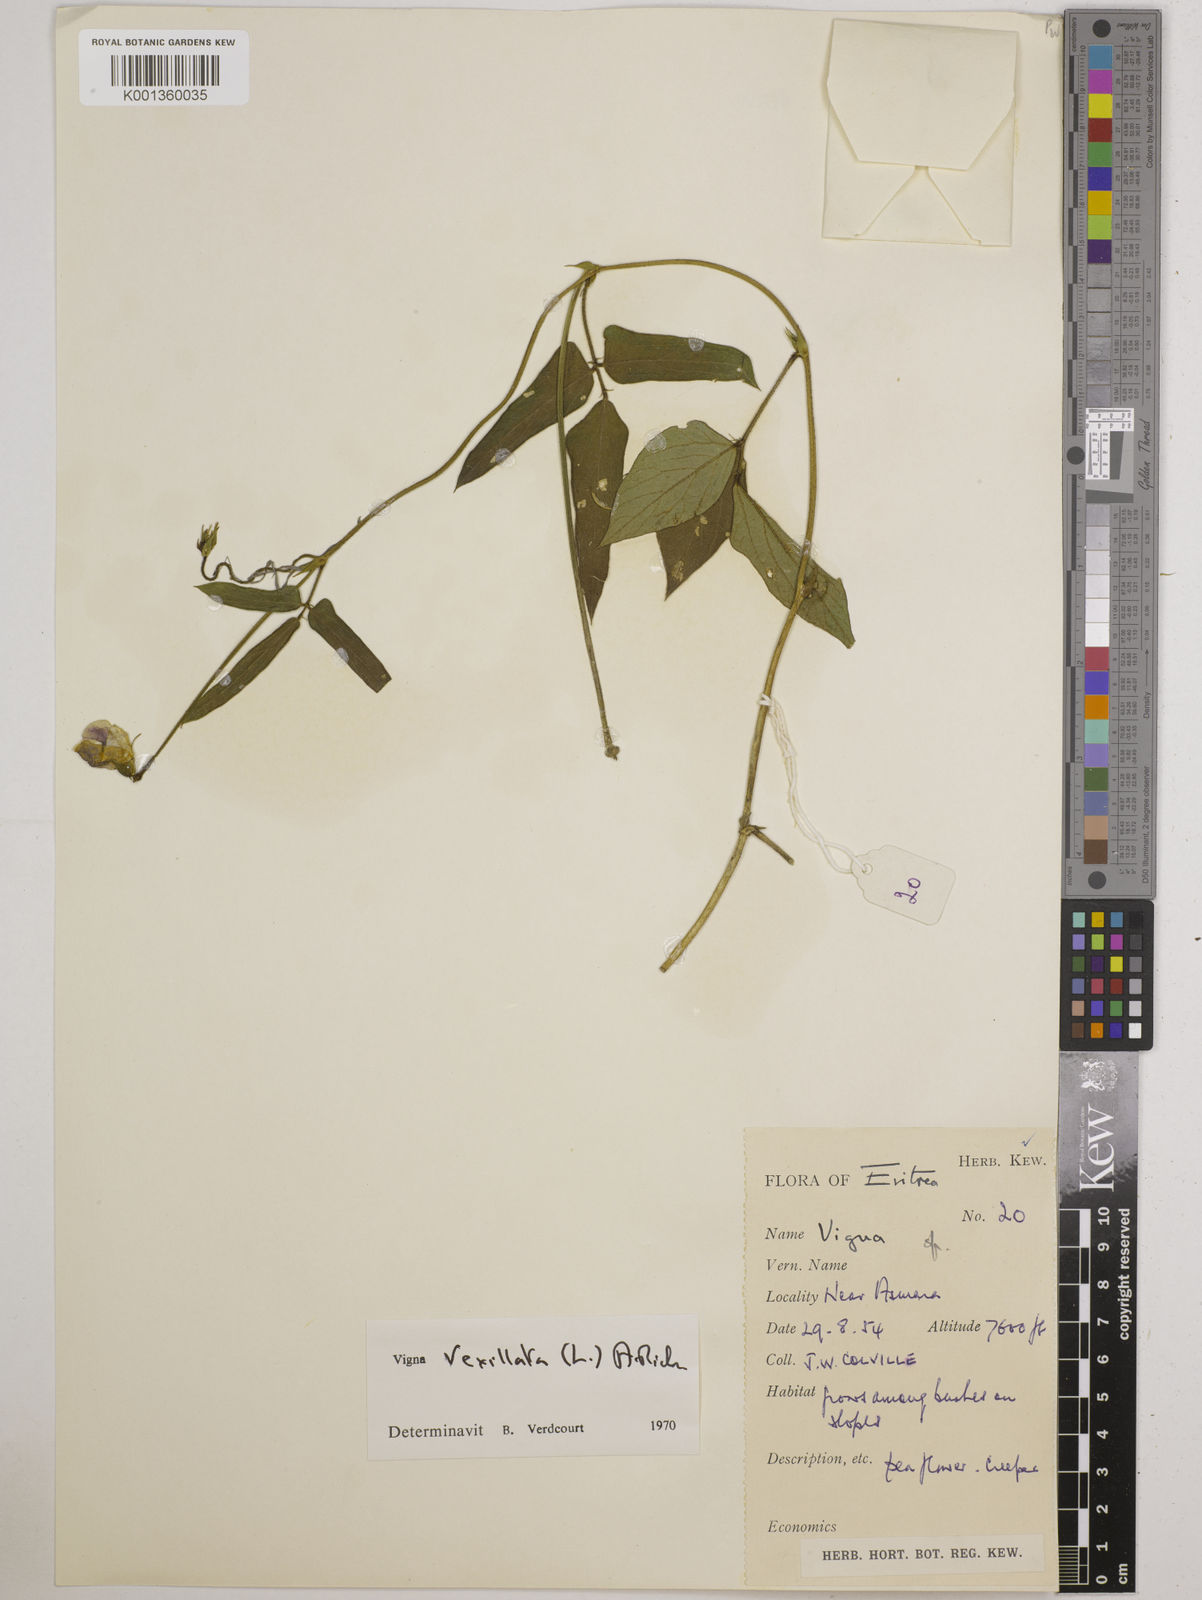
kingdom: Plantae
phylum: Tracheophyta
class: Magnoliopsida
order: Fabales
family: Fabaceae
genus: Vigna
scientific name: Vigna vexillata
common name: Zombi pea
